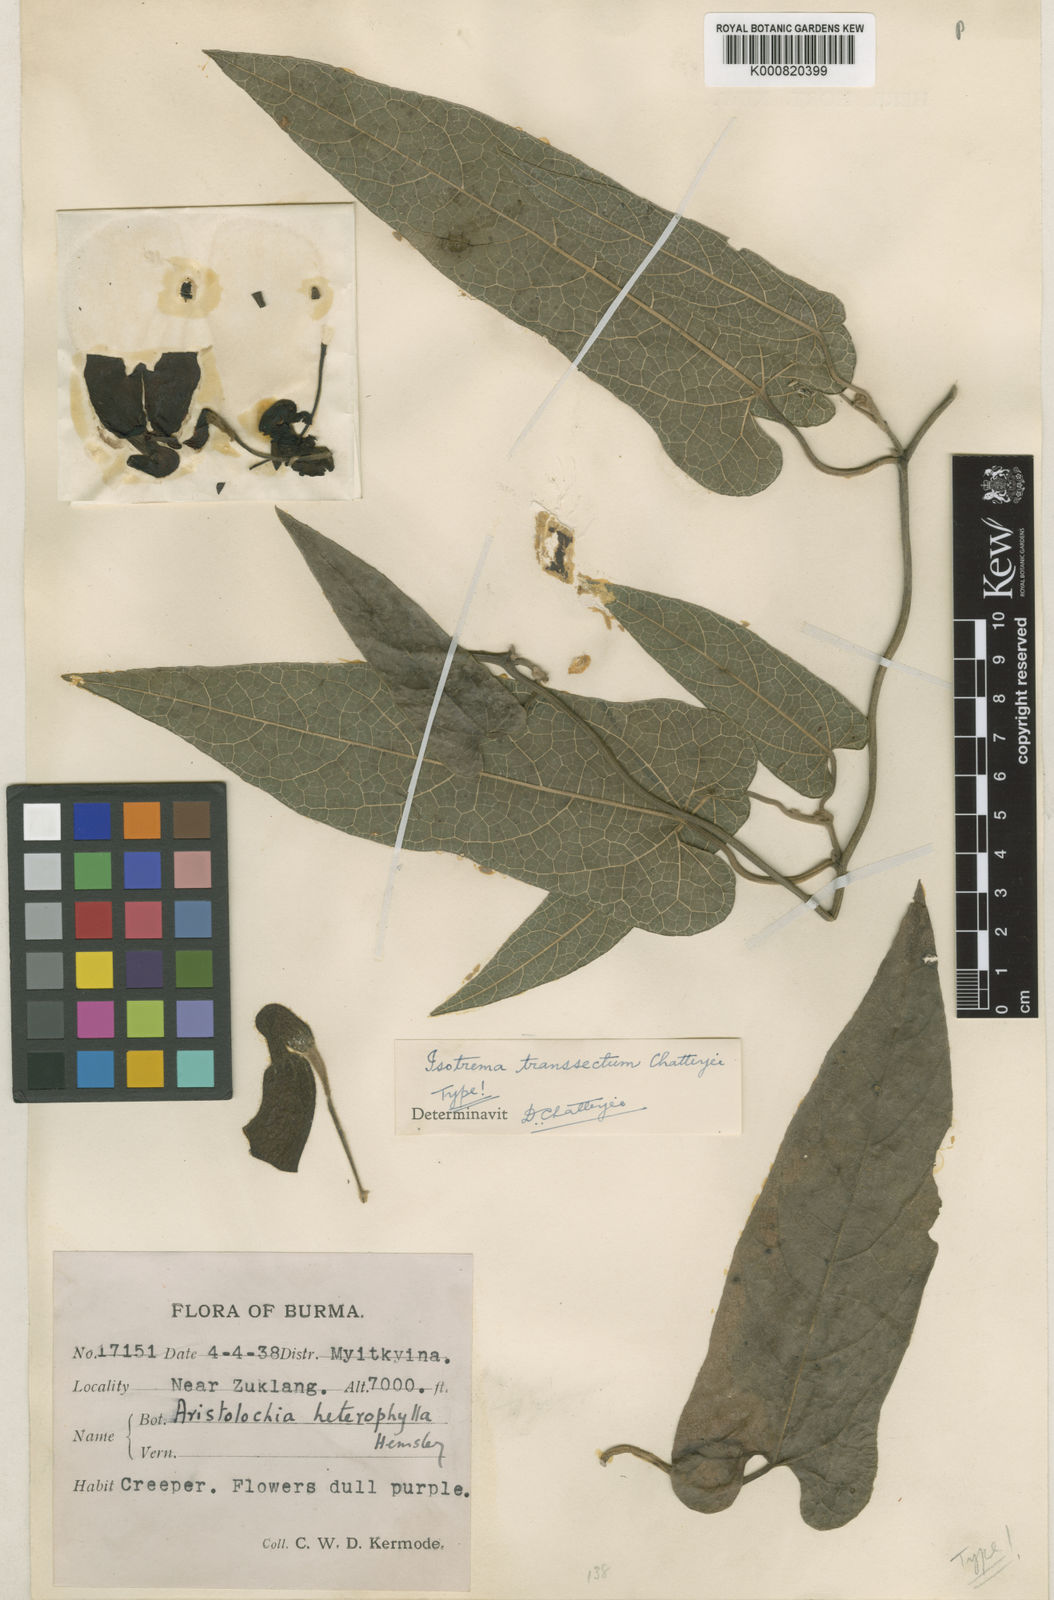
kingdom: Plantae
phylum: Tracheophyta
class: Magnoliopsida
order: Piperales
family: Aristolochiaceae
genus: Isotrema
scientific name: Isotrema transsecta
